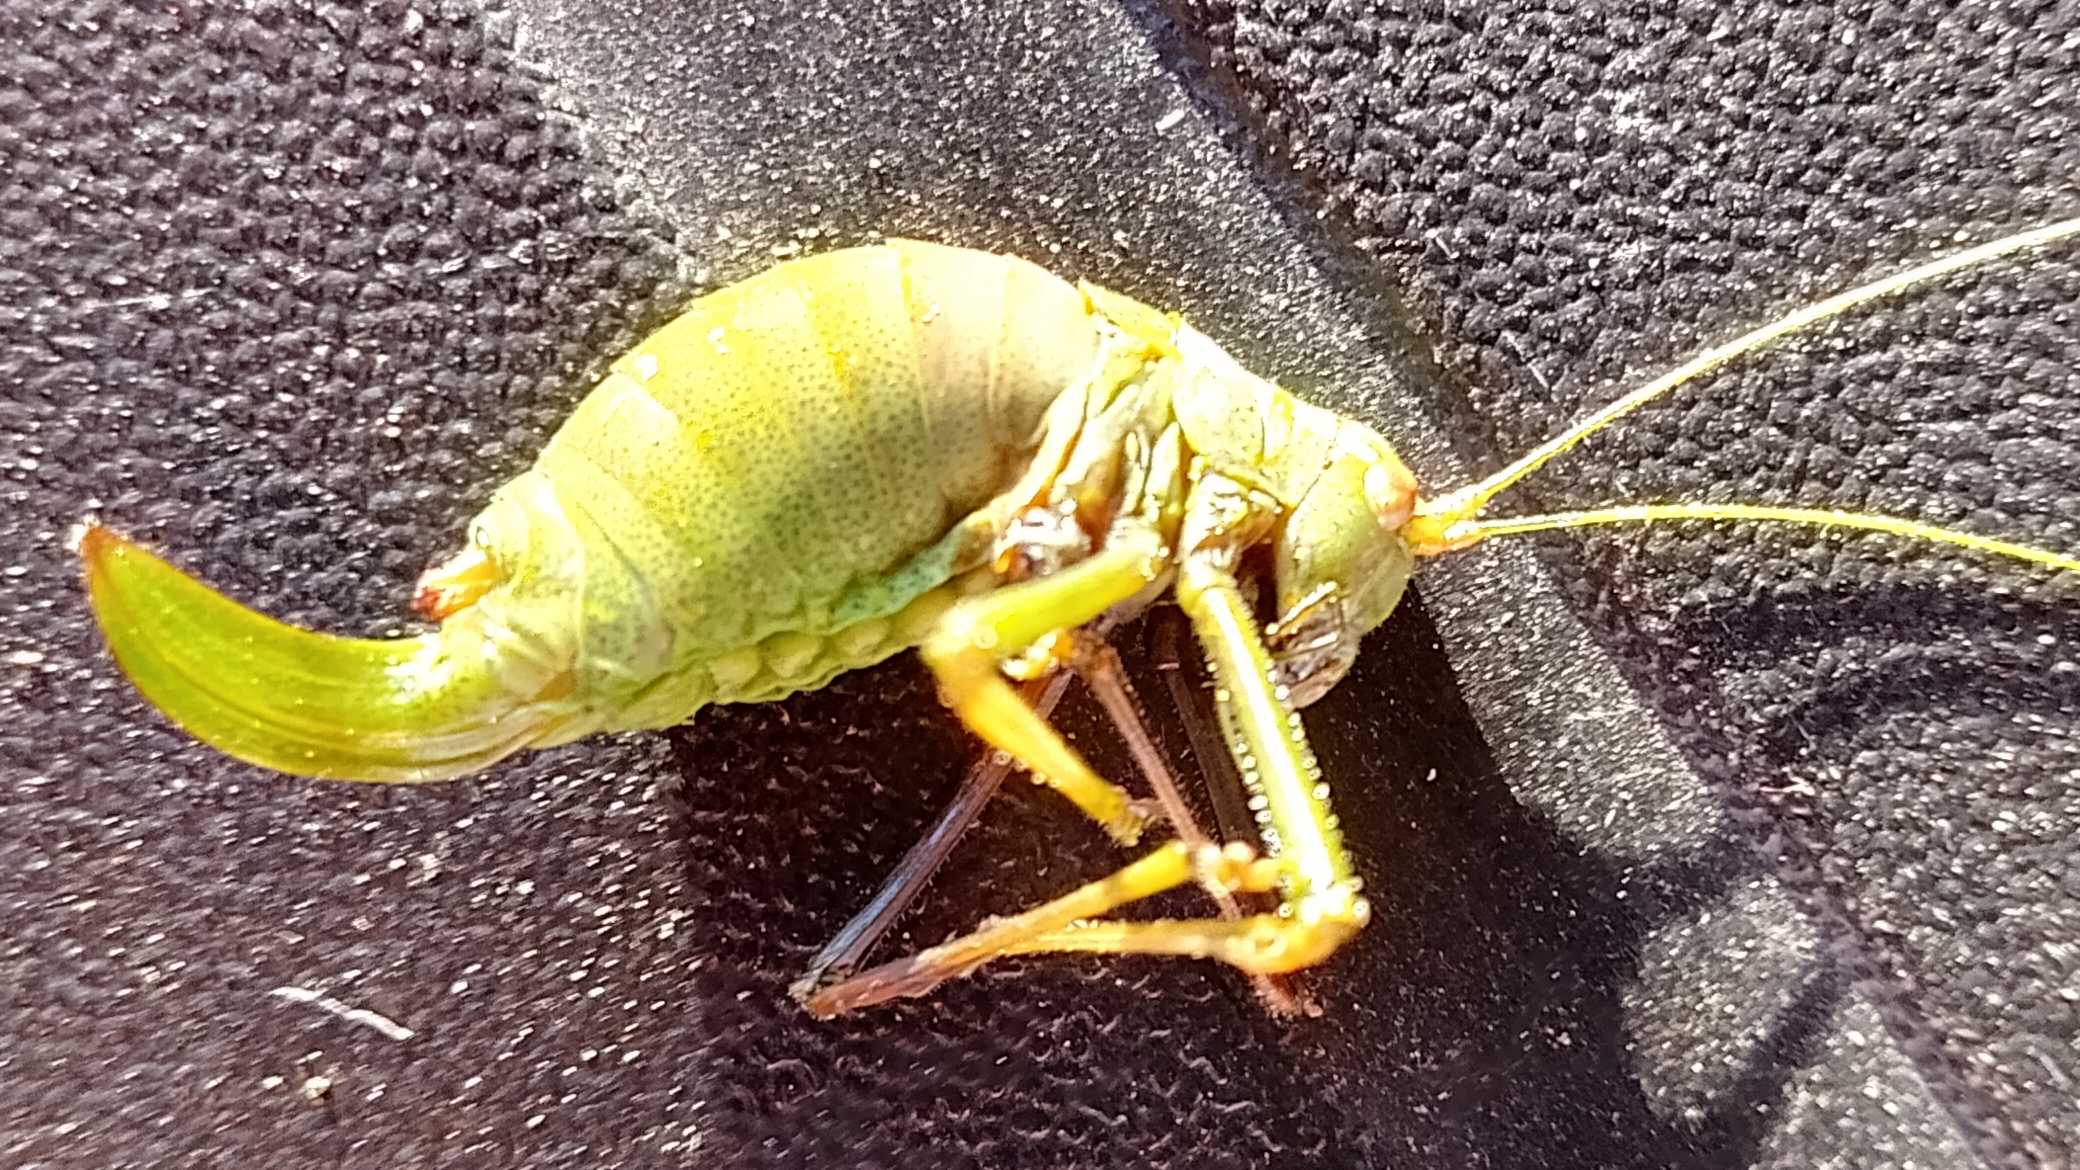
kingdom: Animalia
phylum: Arthropoda
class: Insecta
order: Orthoptera
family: Tettigoniidae
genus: Leptophyes
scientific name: Leptophyes punctatissima
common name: Krumknivgræshoppe
